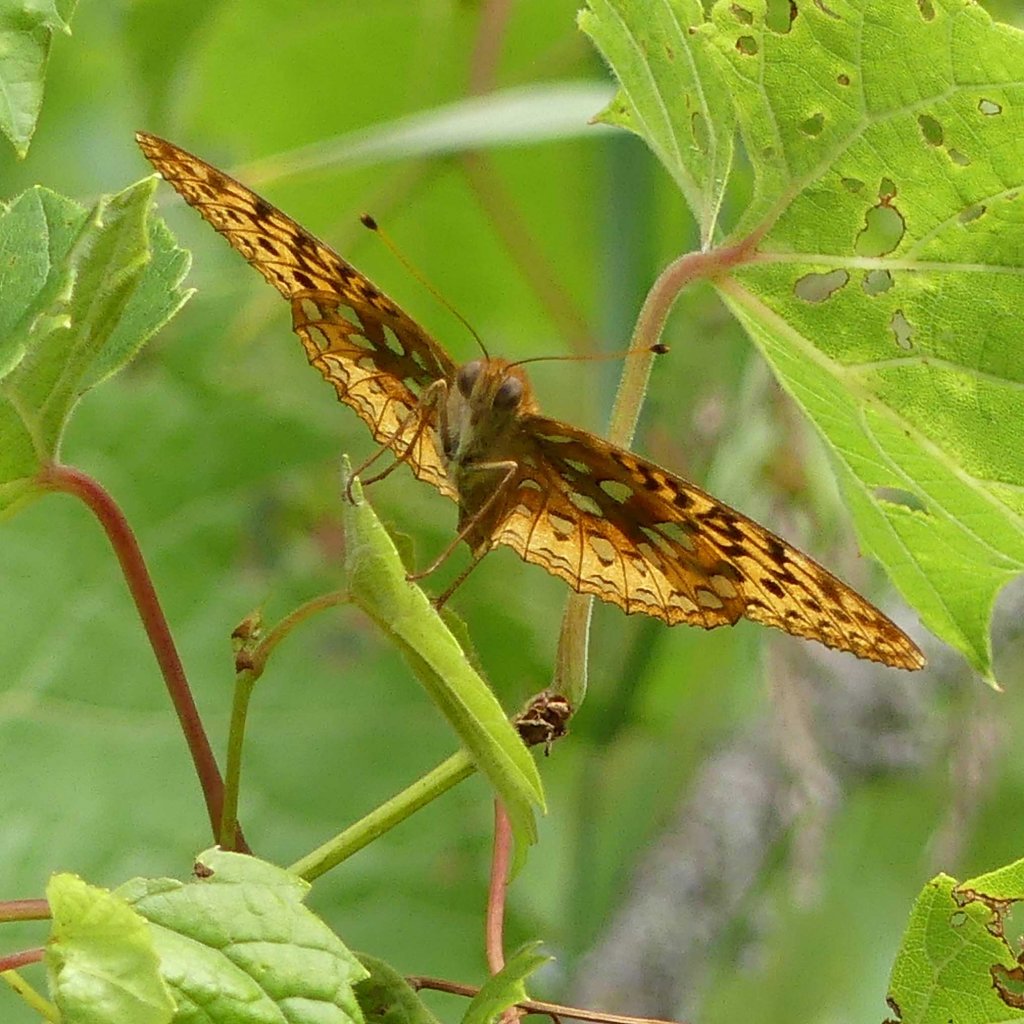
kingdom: Animalia
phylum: Arthropoda
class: Insecta
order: Lepidoptera
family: Nymphalidae
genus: Speyeria
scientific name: Speyeria cybele
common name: Great Spangled Fritillary
